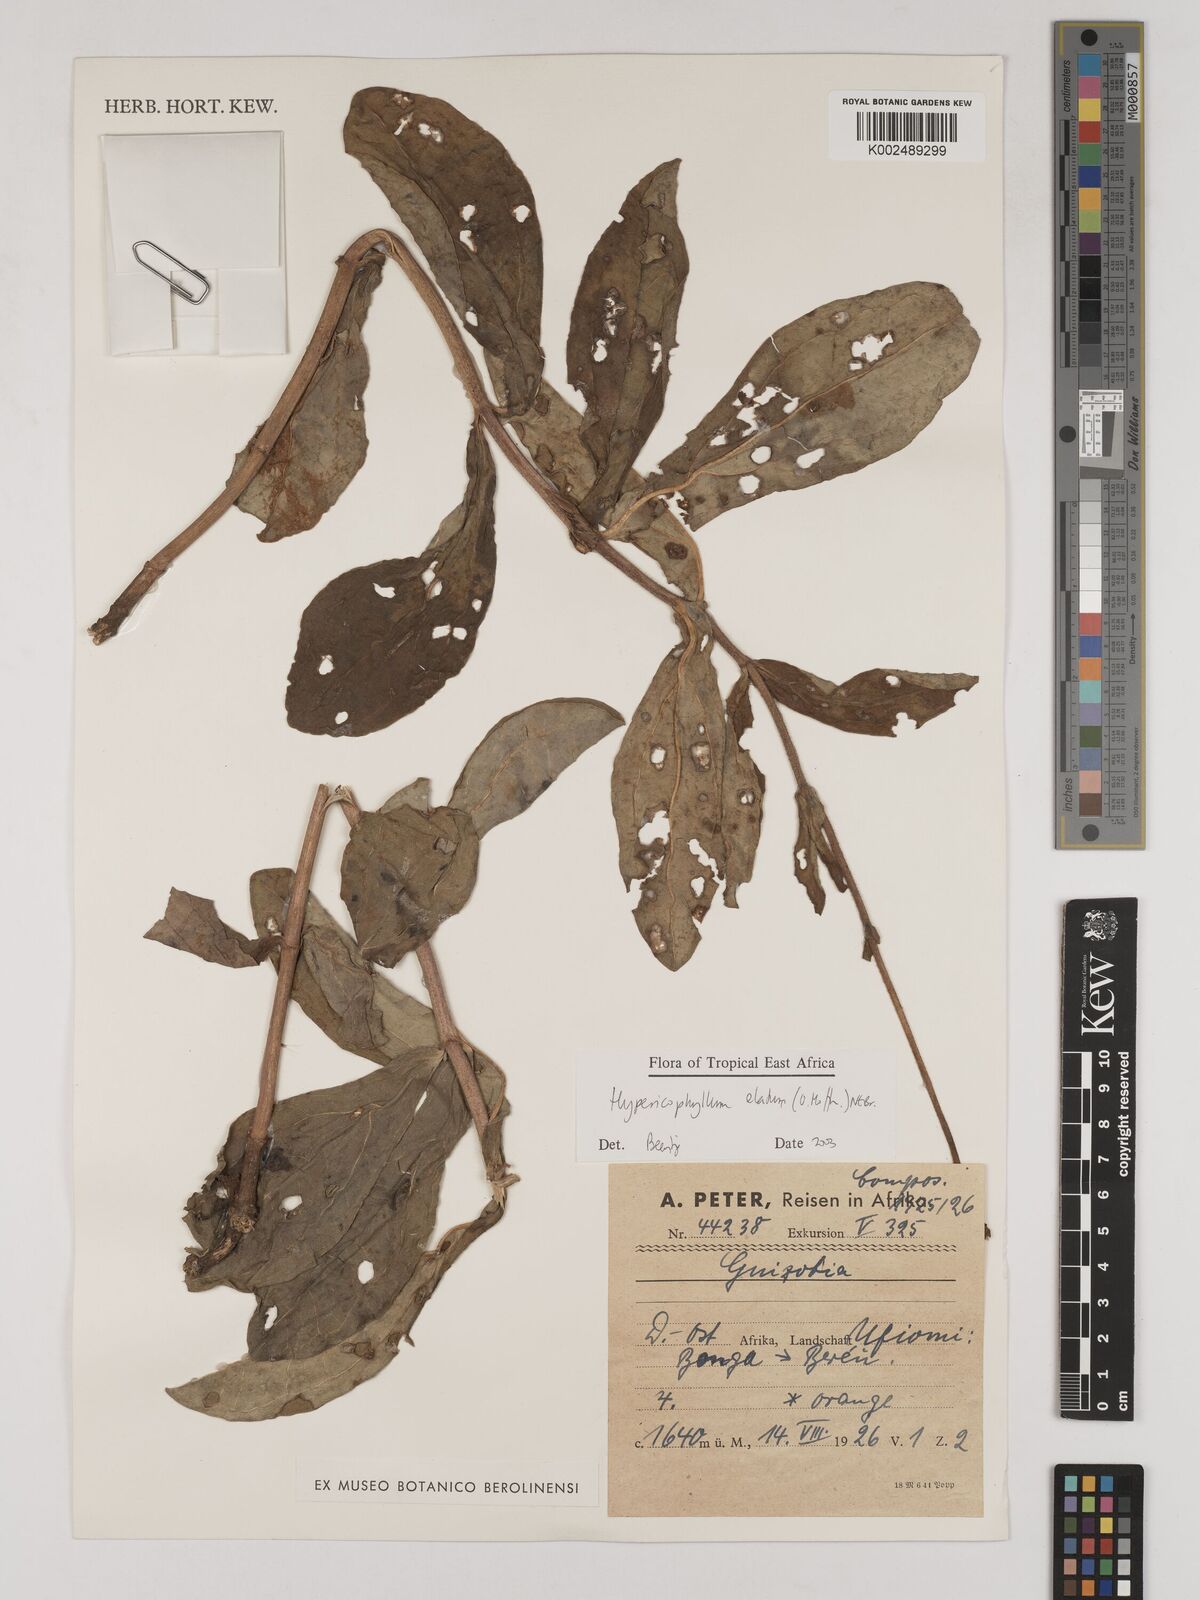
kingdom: Plantae
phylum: Tracheophyta
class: Magnoliopsida
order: Asterales
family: Asteraceae
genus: Hypericophyllum
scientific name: Hypericophyllum elatum
